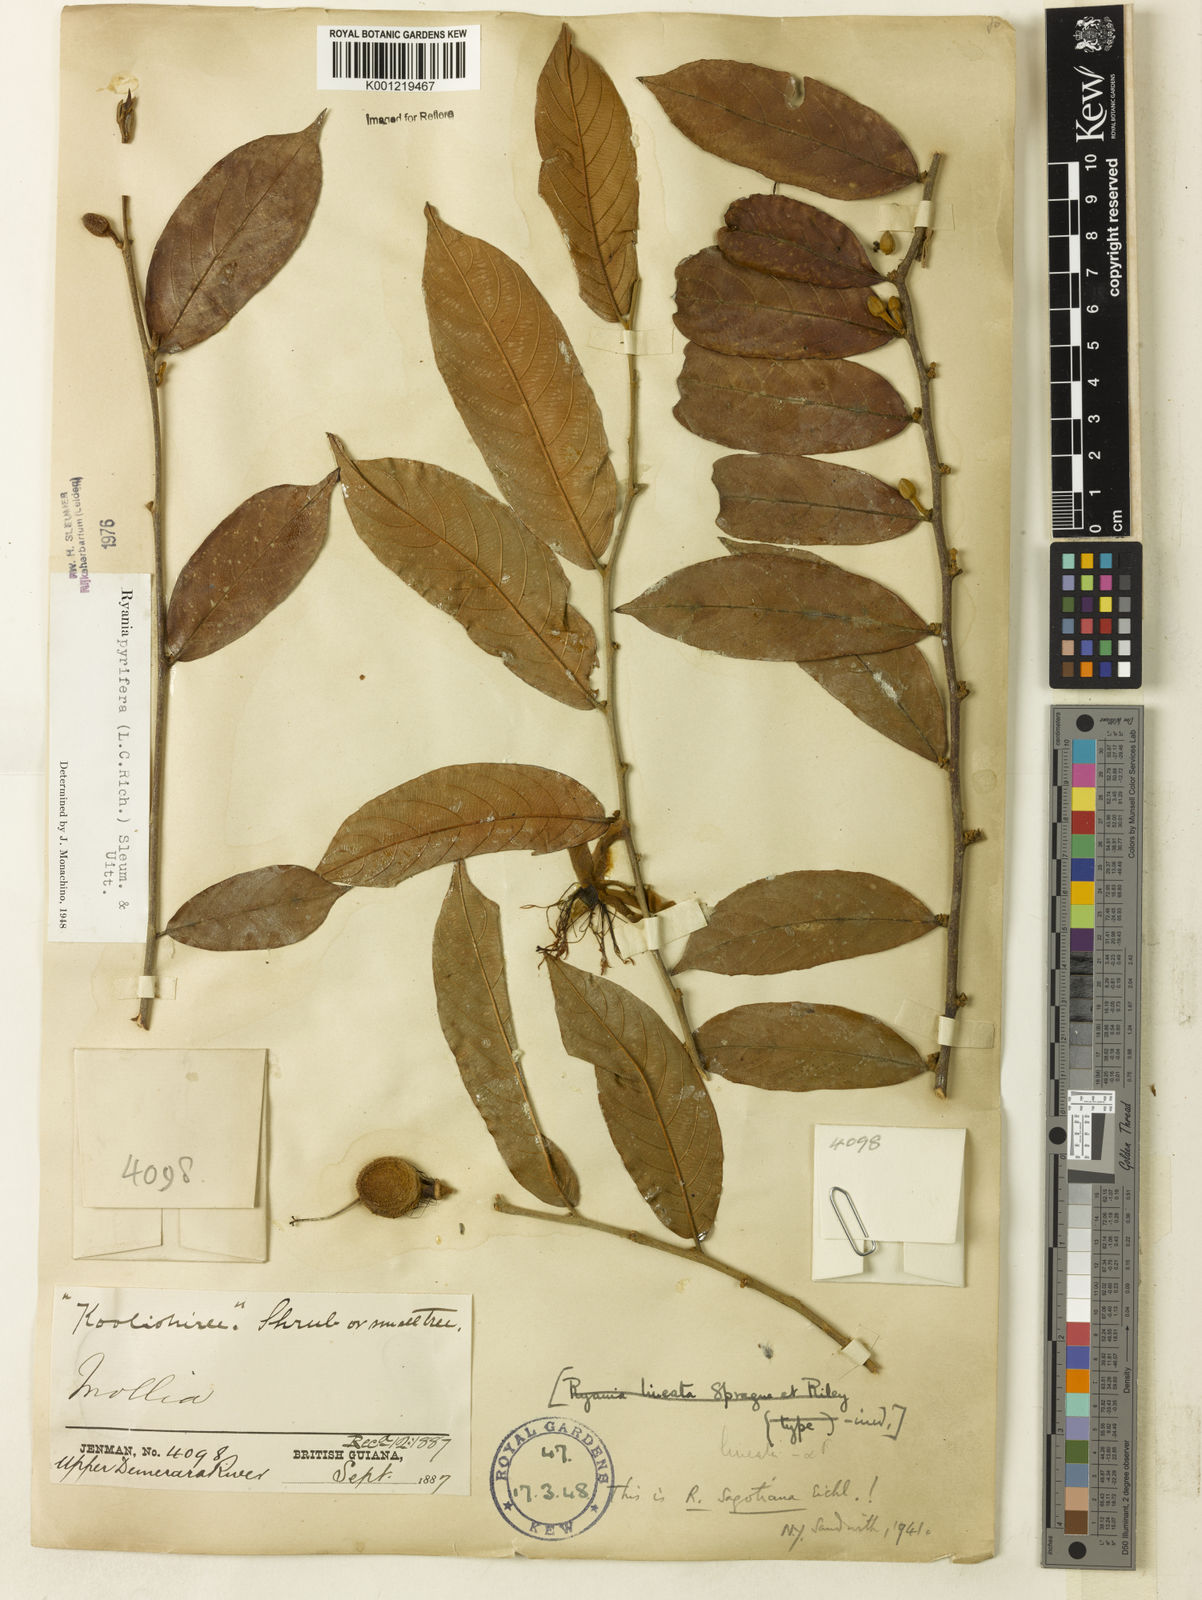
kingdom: Plantae
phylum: Tracheophyta
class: Magnoliopsida
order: Malpighiales
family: Salicaceae
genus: Ryania
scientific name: Ryania pyrifera
